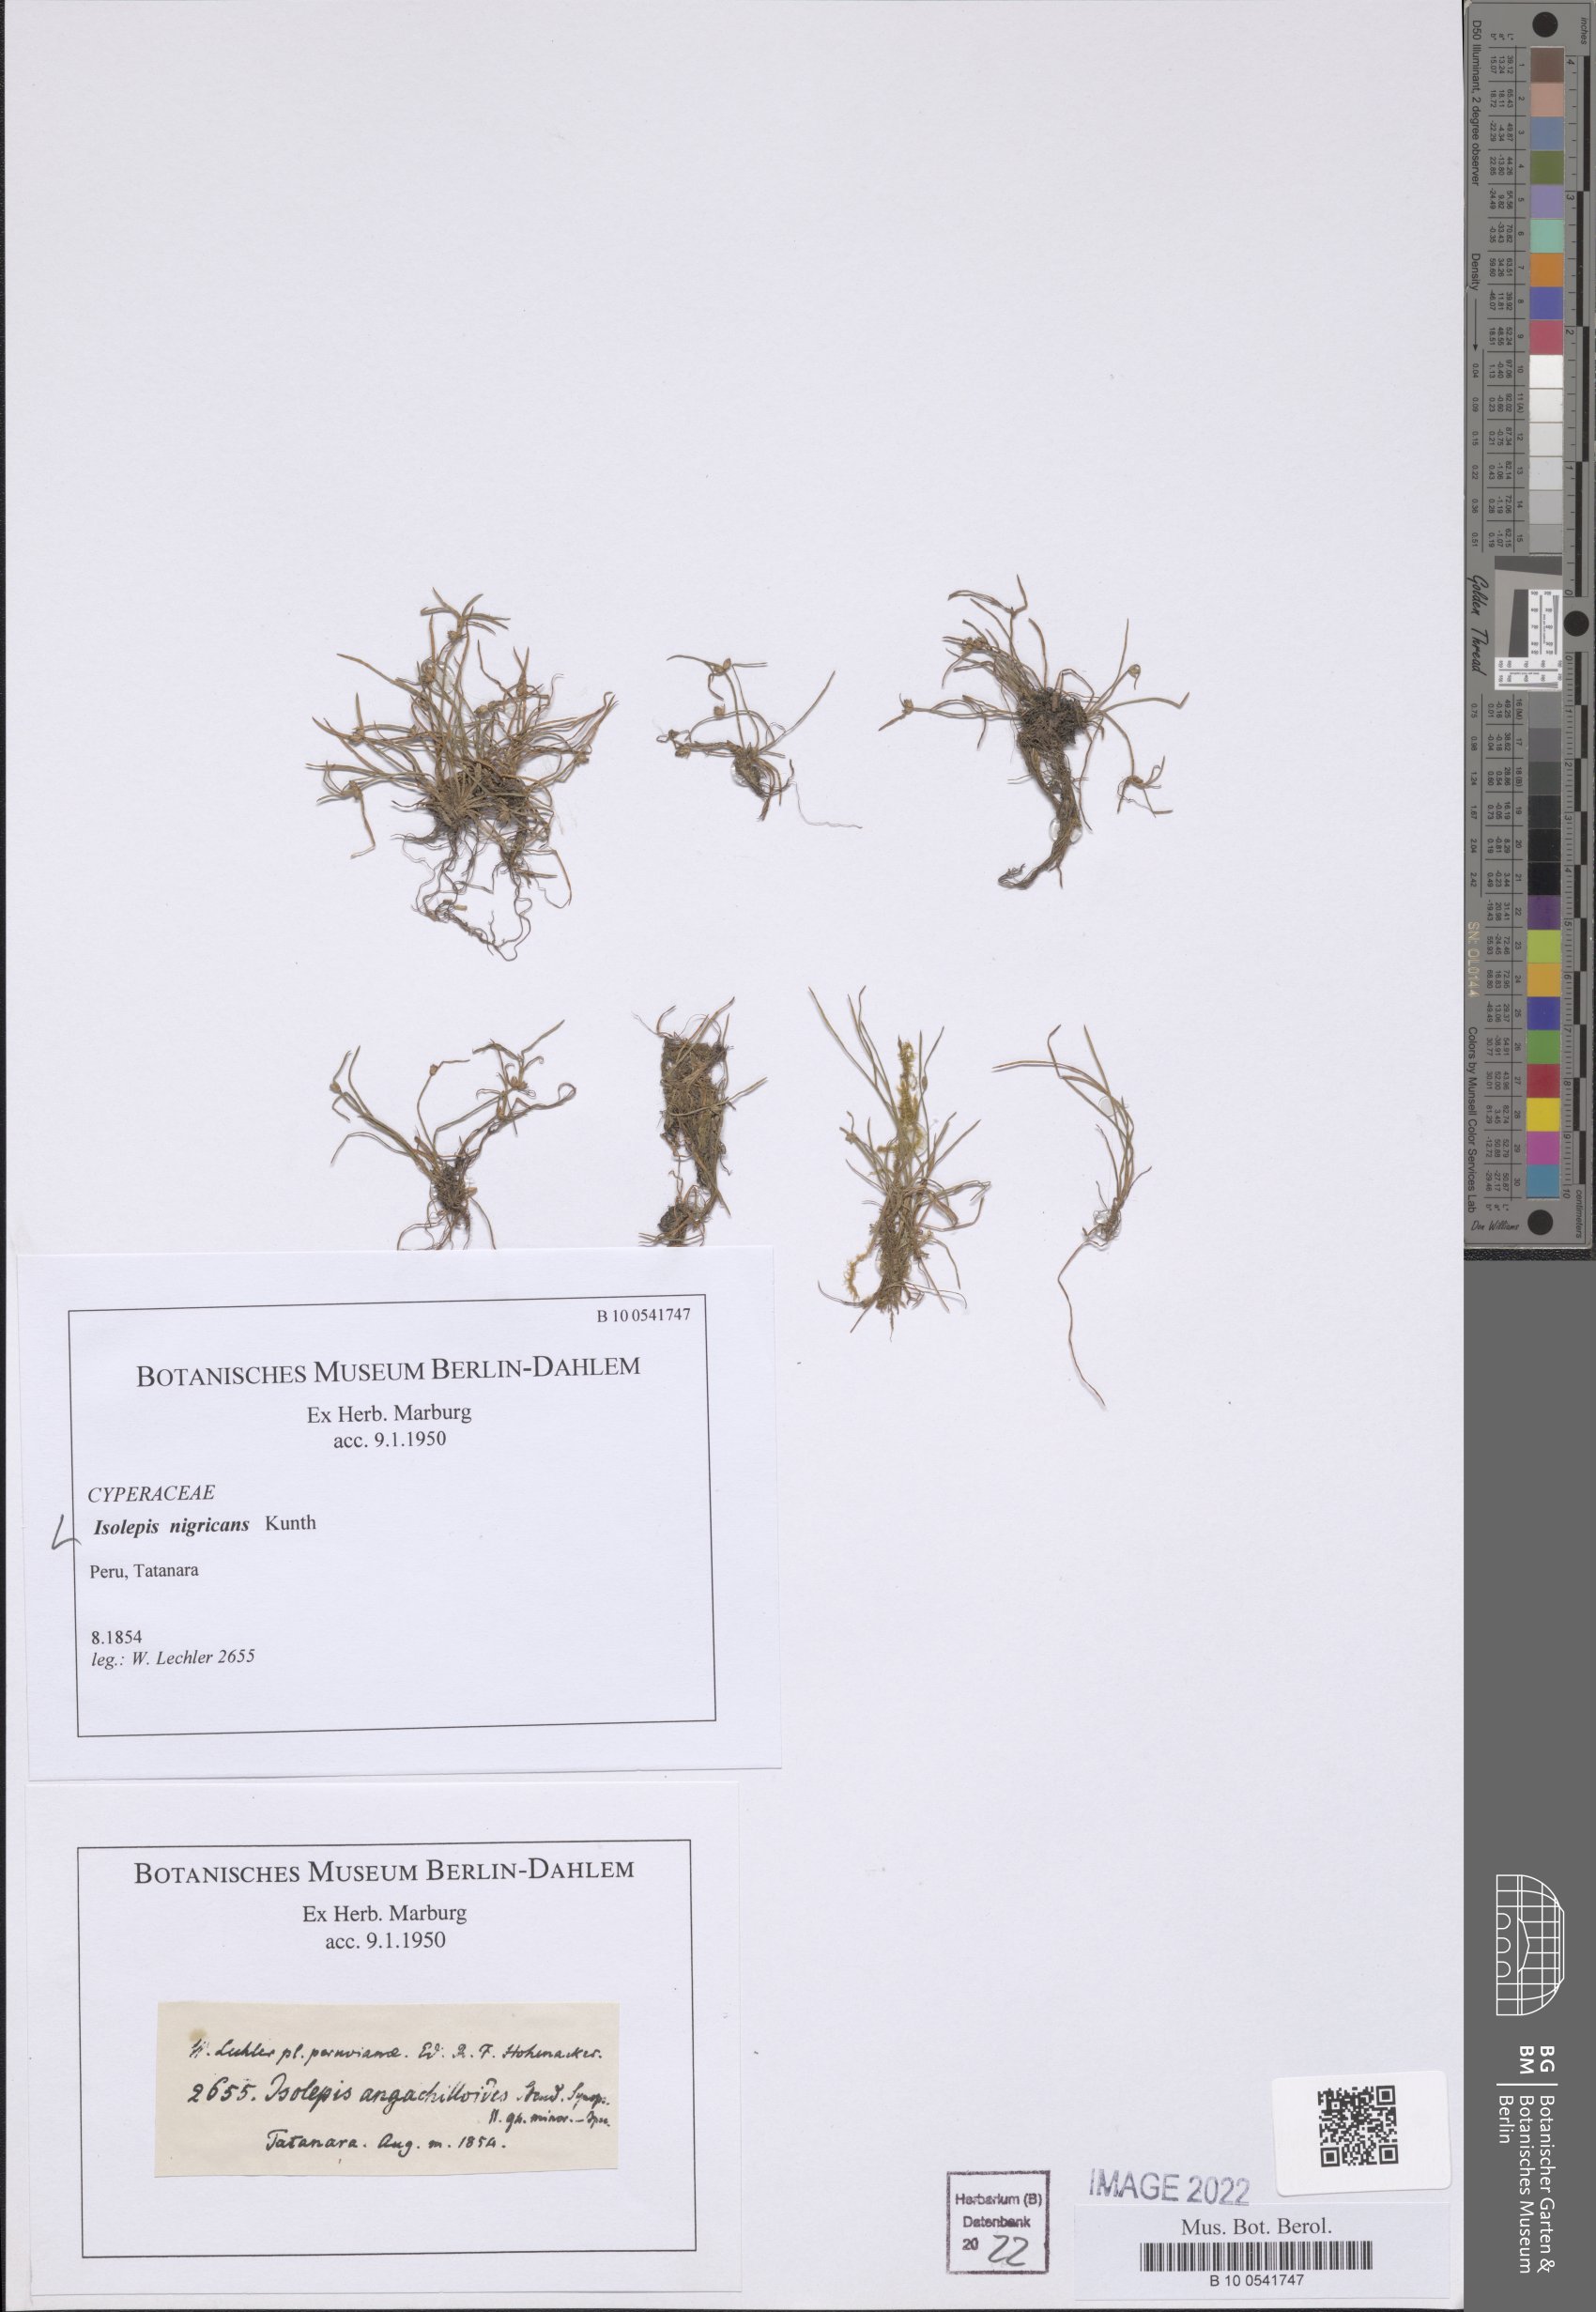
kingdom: Plantae
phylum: Tracheophyta
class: Liliopsida
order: Poales
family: Cyperaceae
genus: Isolepis
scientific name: Isolepis nigricans
